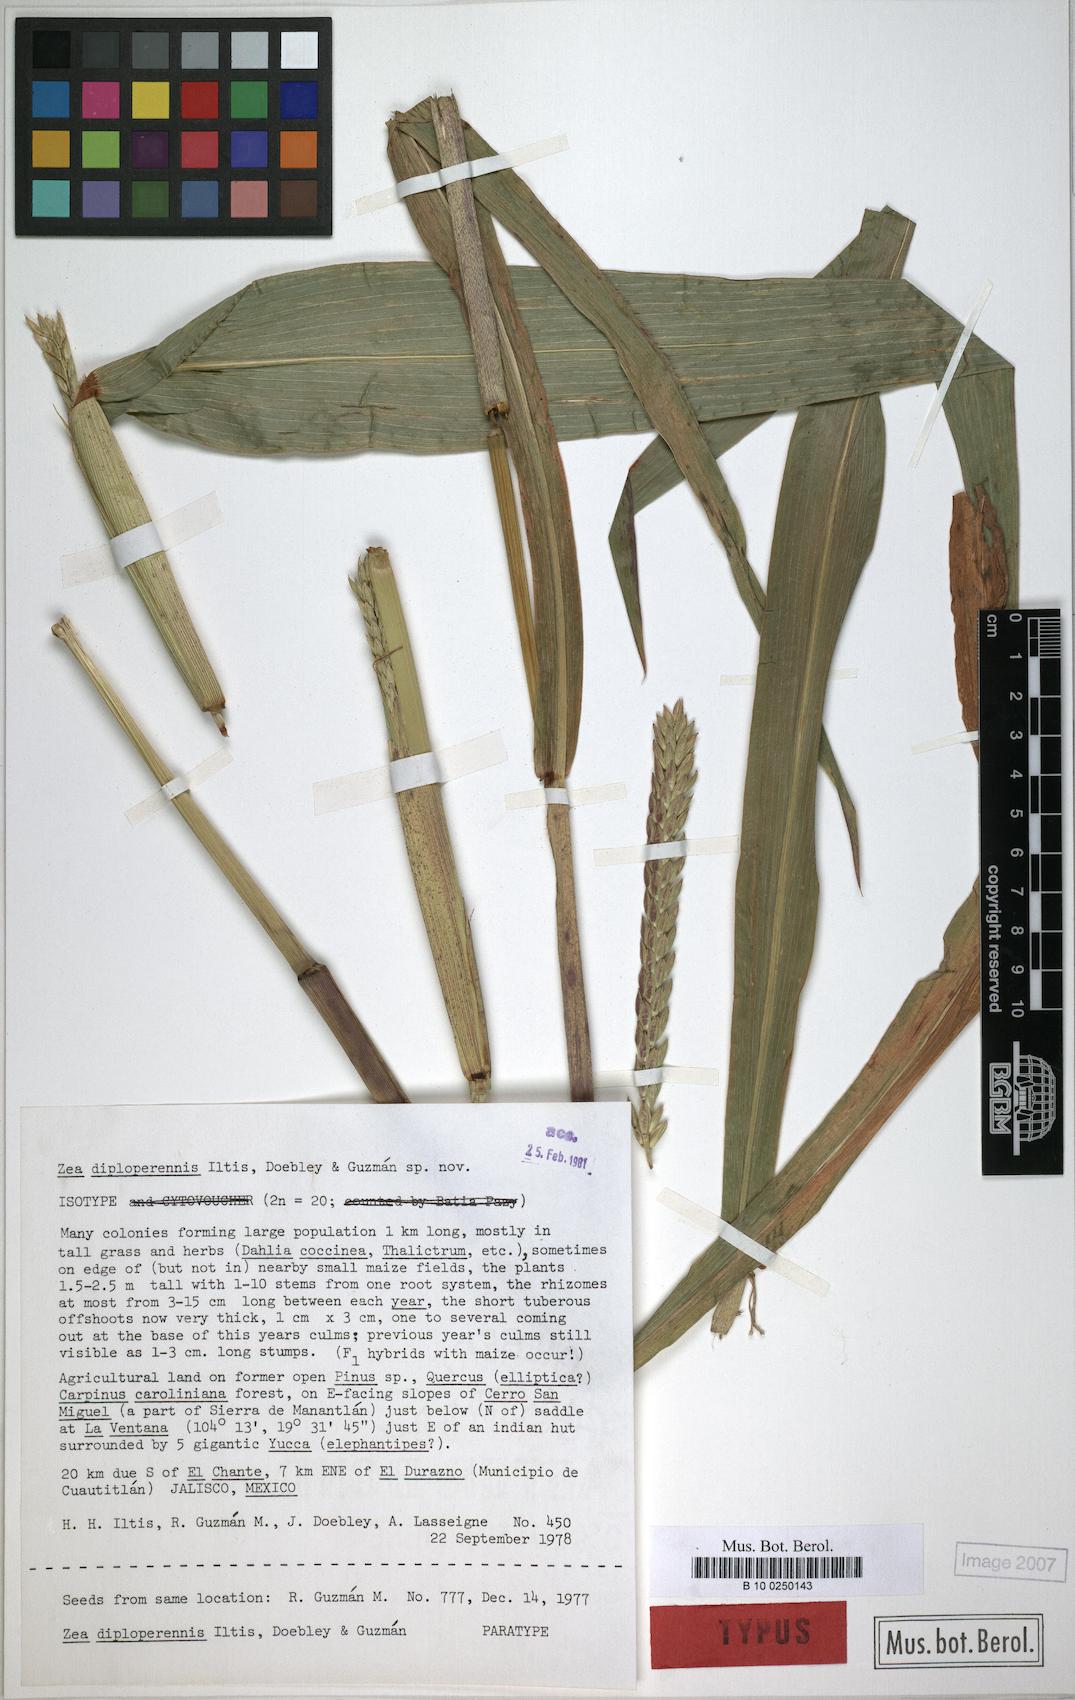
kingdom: Plantae
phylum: Tracheophyta
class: Liliopsida
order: Poales
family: Poaceae
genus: Zea
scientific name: Zea diploperennis
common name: Diploperennial teosinte
